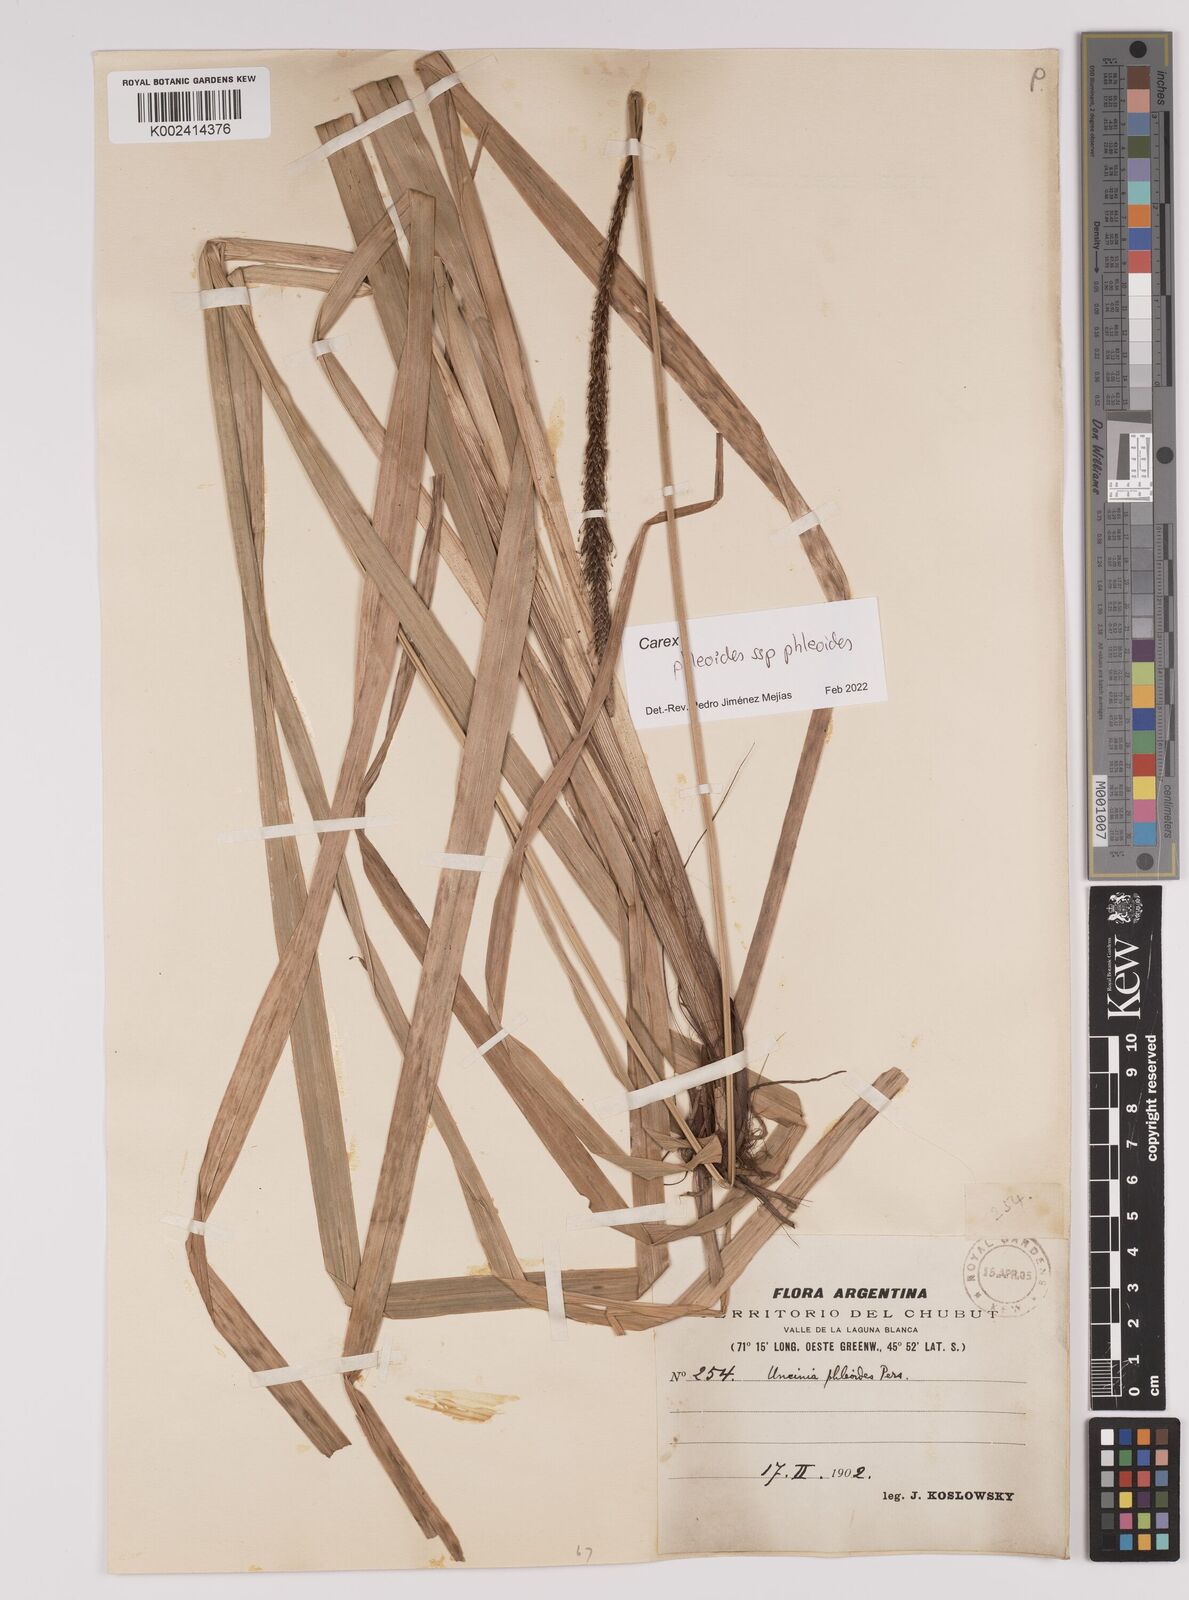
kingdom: Plantae
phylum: Tracheophyta
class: Liliopsida
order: Poales
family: Cyperaceae
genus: Carex
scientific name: Carex phleoides
